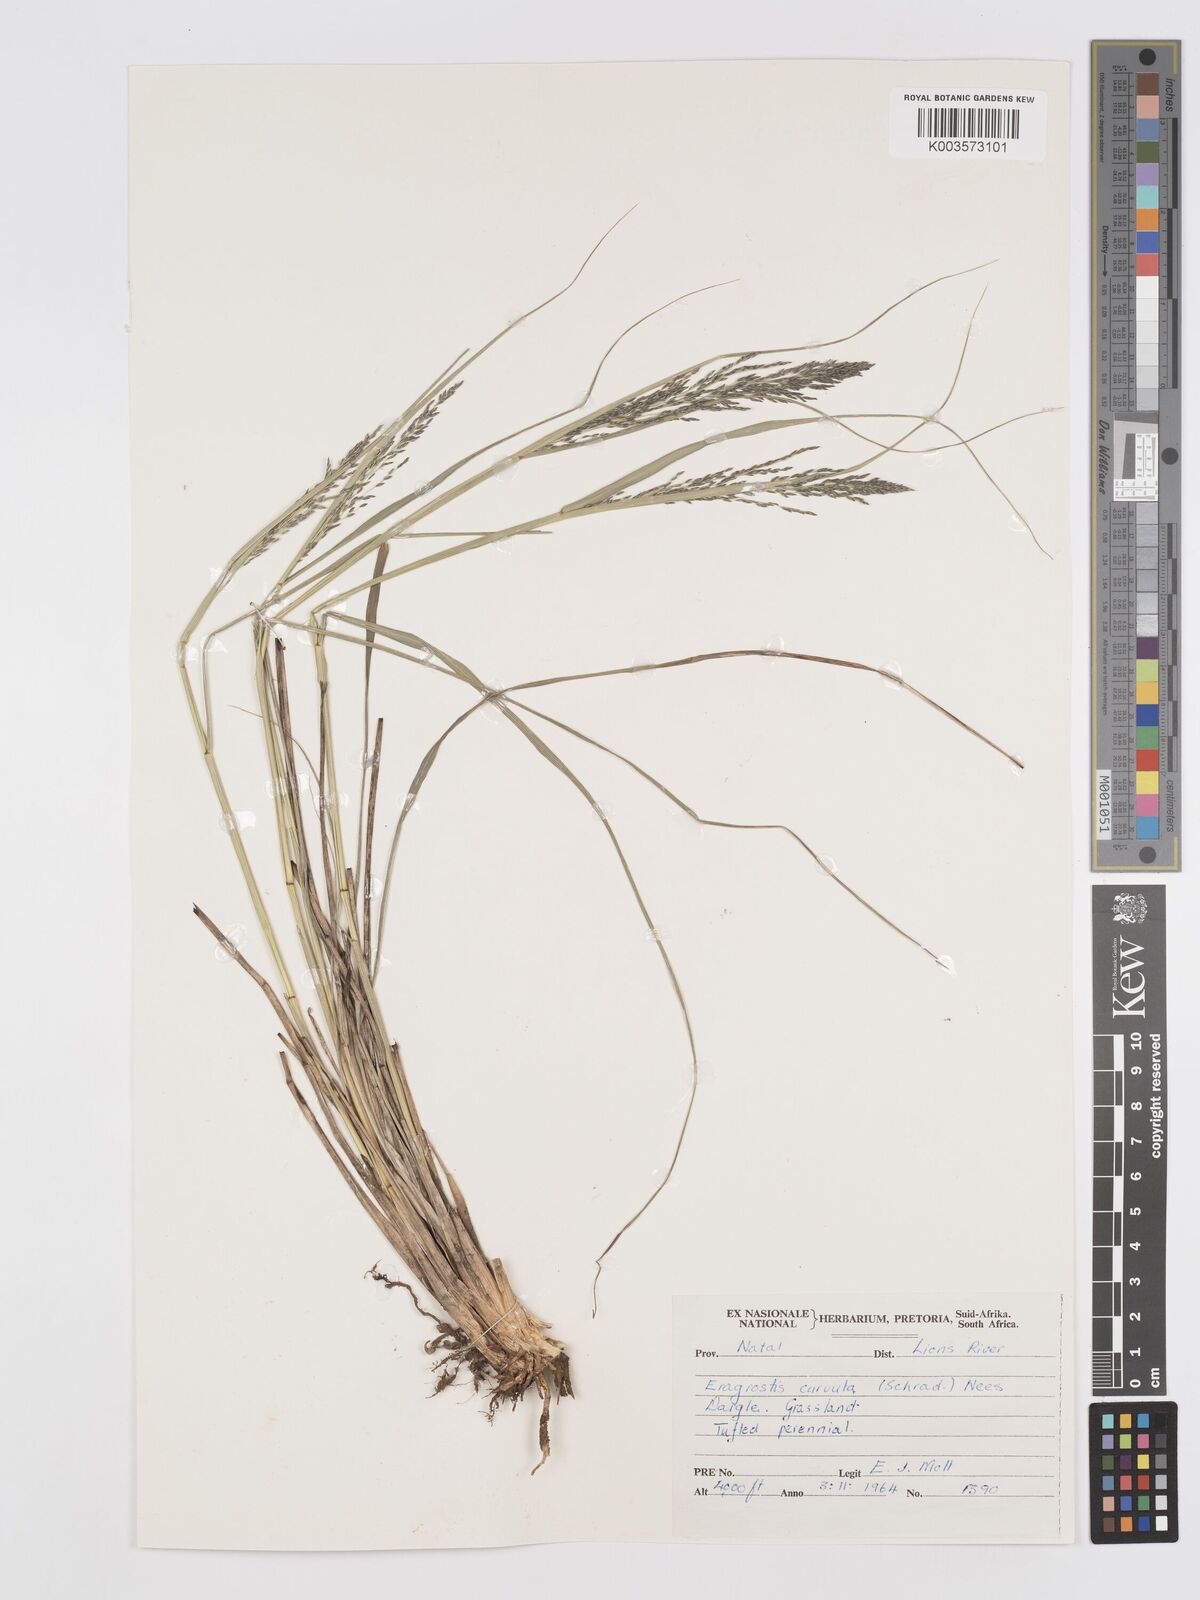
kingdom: Plantae
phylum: Tracheophyta
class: Liliopsida
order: Poales
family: Poaceae
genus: Eragrostis
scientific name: Eragrostis curvula
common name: African love-grass
